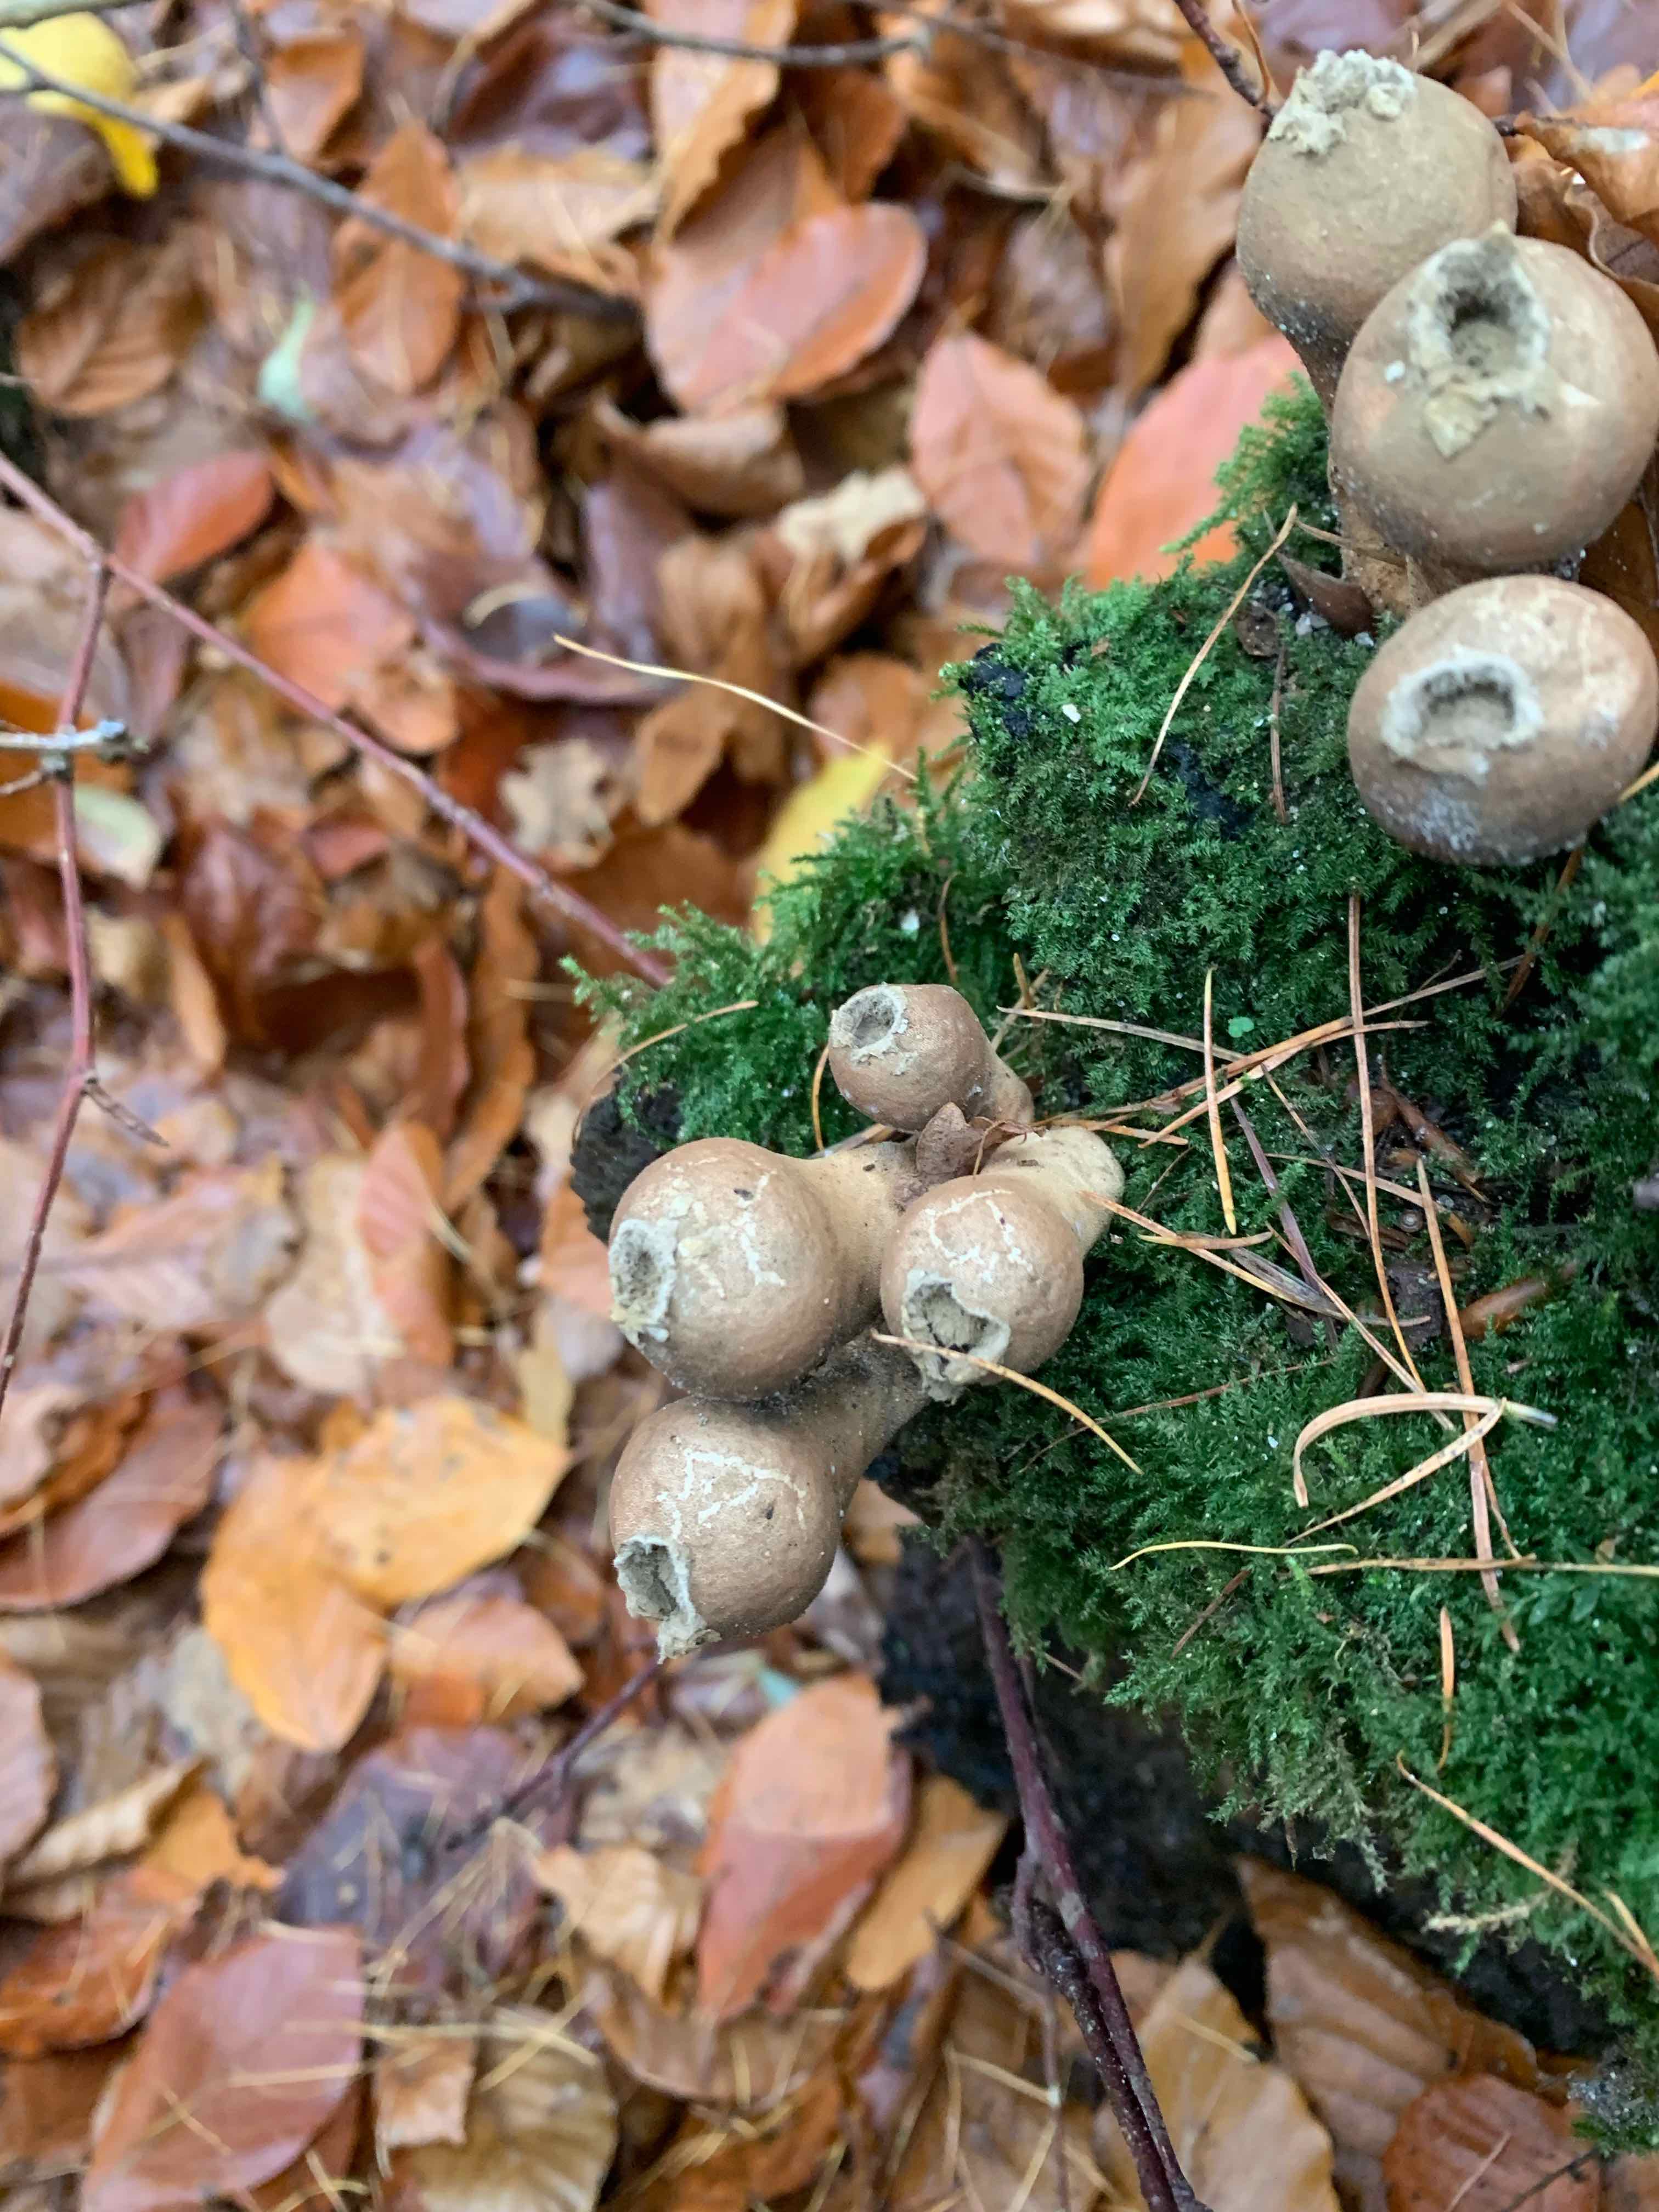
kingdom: Fungi
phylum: Basidiomycota
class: Agaricomycetes
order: Agaricales
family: Lycoperdaceae
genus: Apioperdon
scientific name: Apioperdon pyriforme
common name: pære-støvbold
